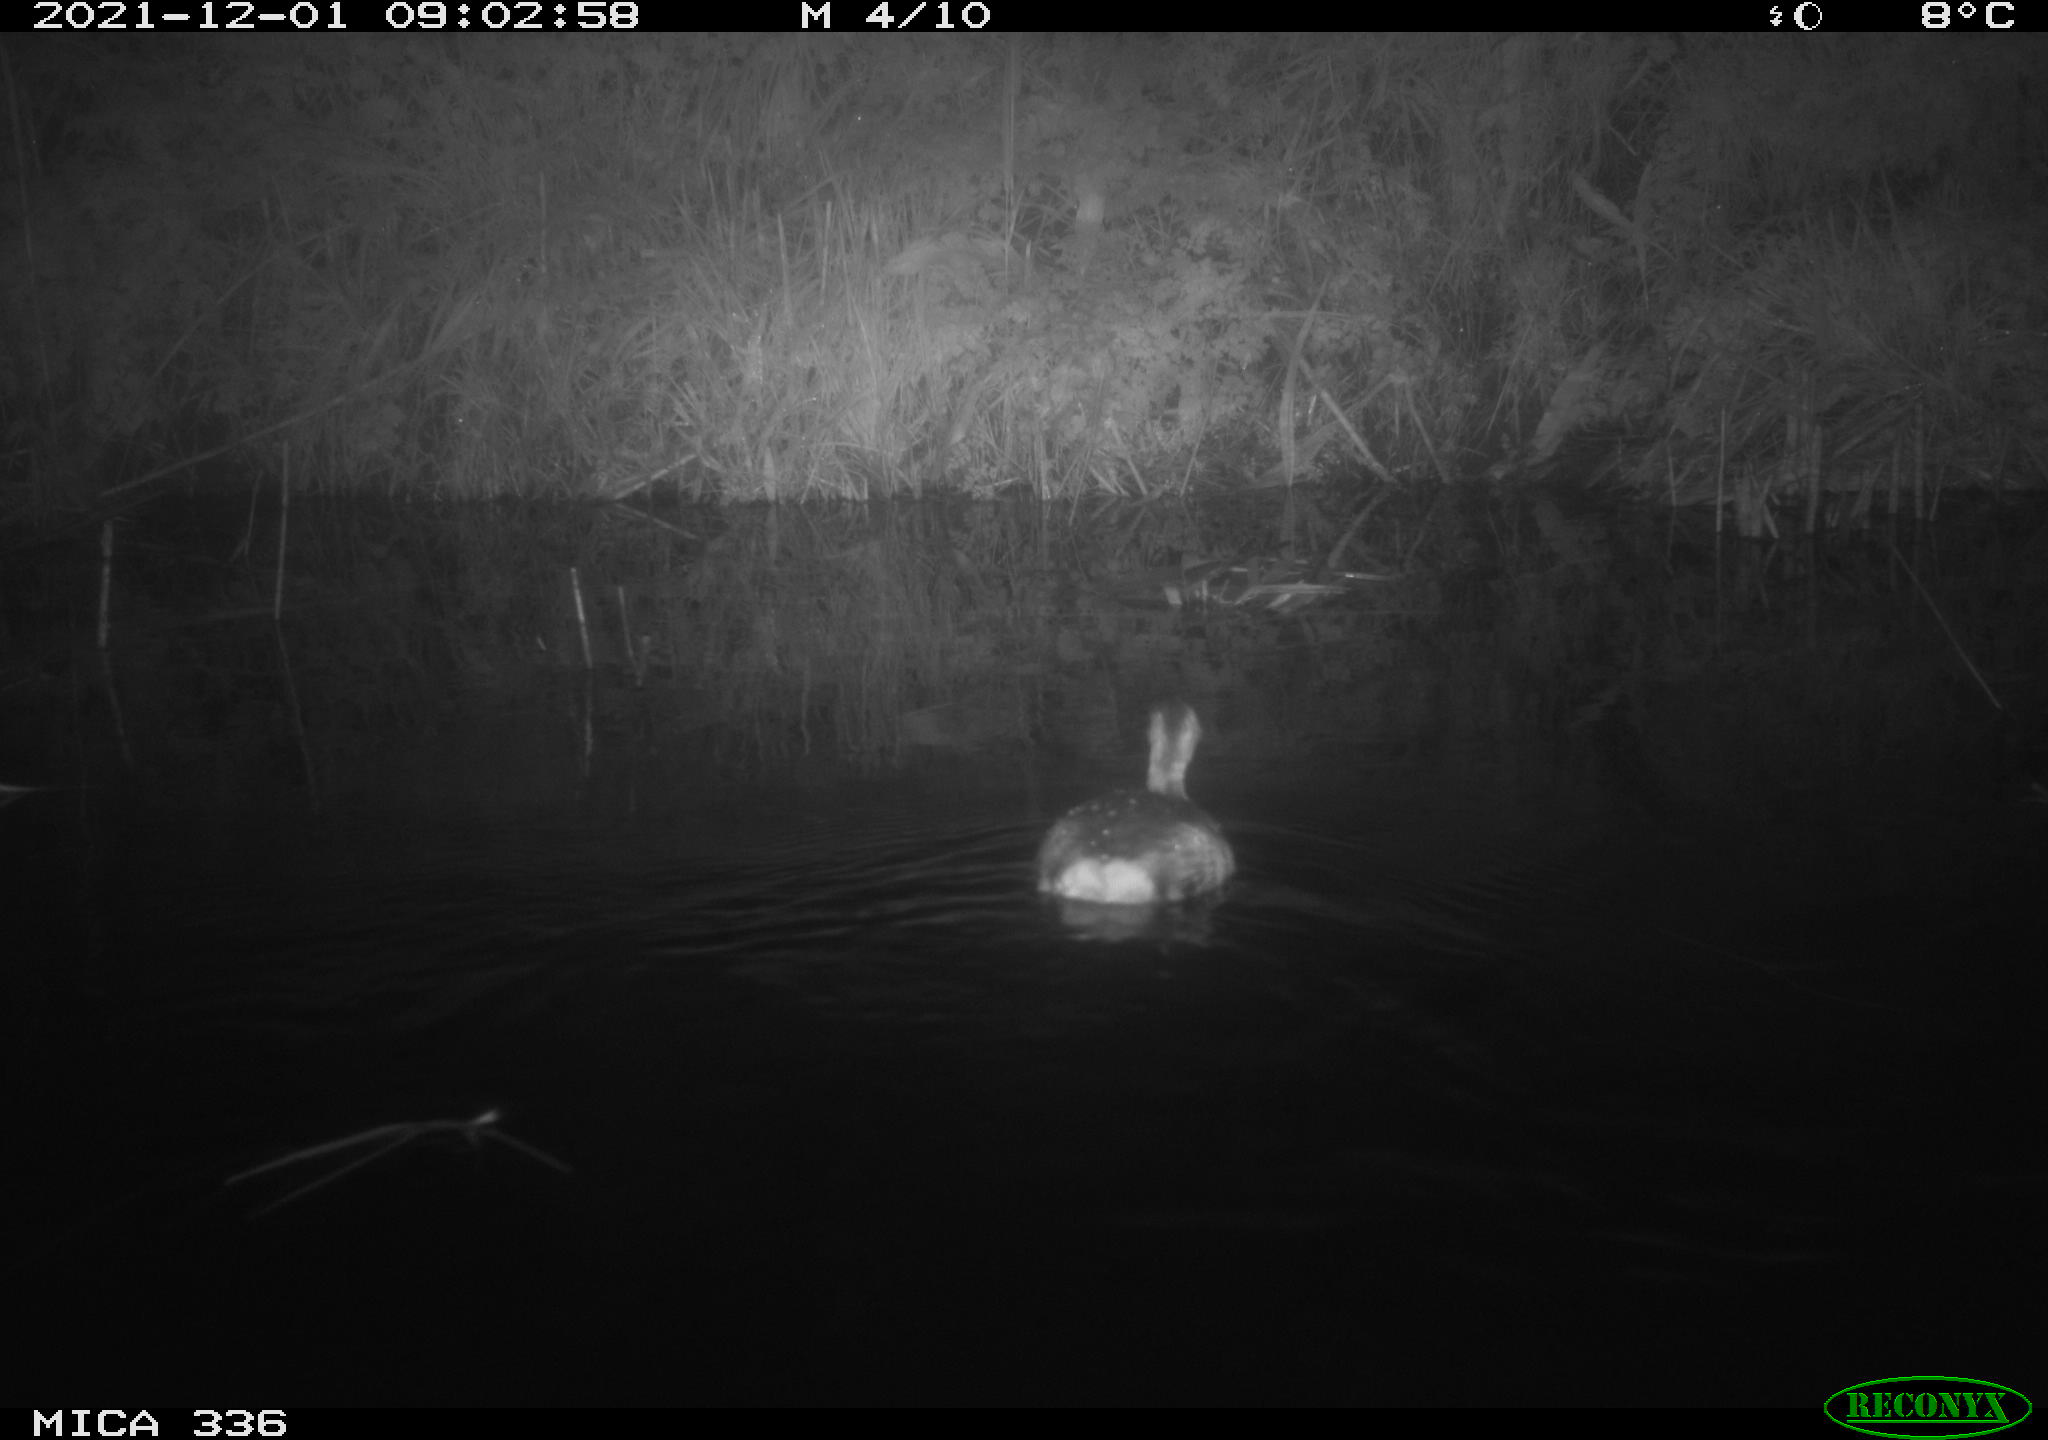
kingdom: Animalia
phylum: Chordata
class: Aves
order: Podicipediformes
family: Podicipedidae
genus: Tachybaptus
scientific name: Tachybaptus ruficollis
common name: Little grebe
